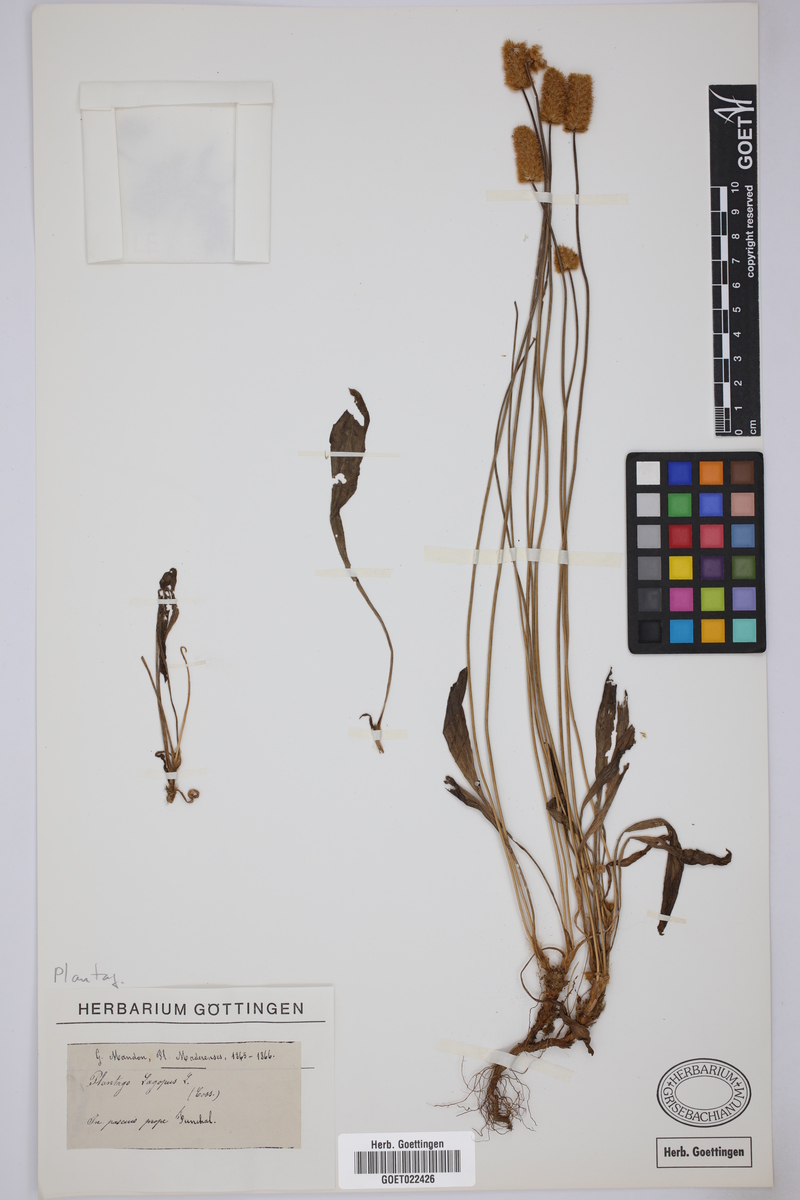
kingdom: Plantae
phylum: Tracheophyta
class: Magnoliopsida
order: Lamiales
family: Plantaginaceae
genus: Plantago
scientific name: Plantago lagopus
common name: Hare-foot plantain
